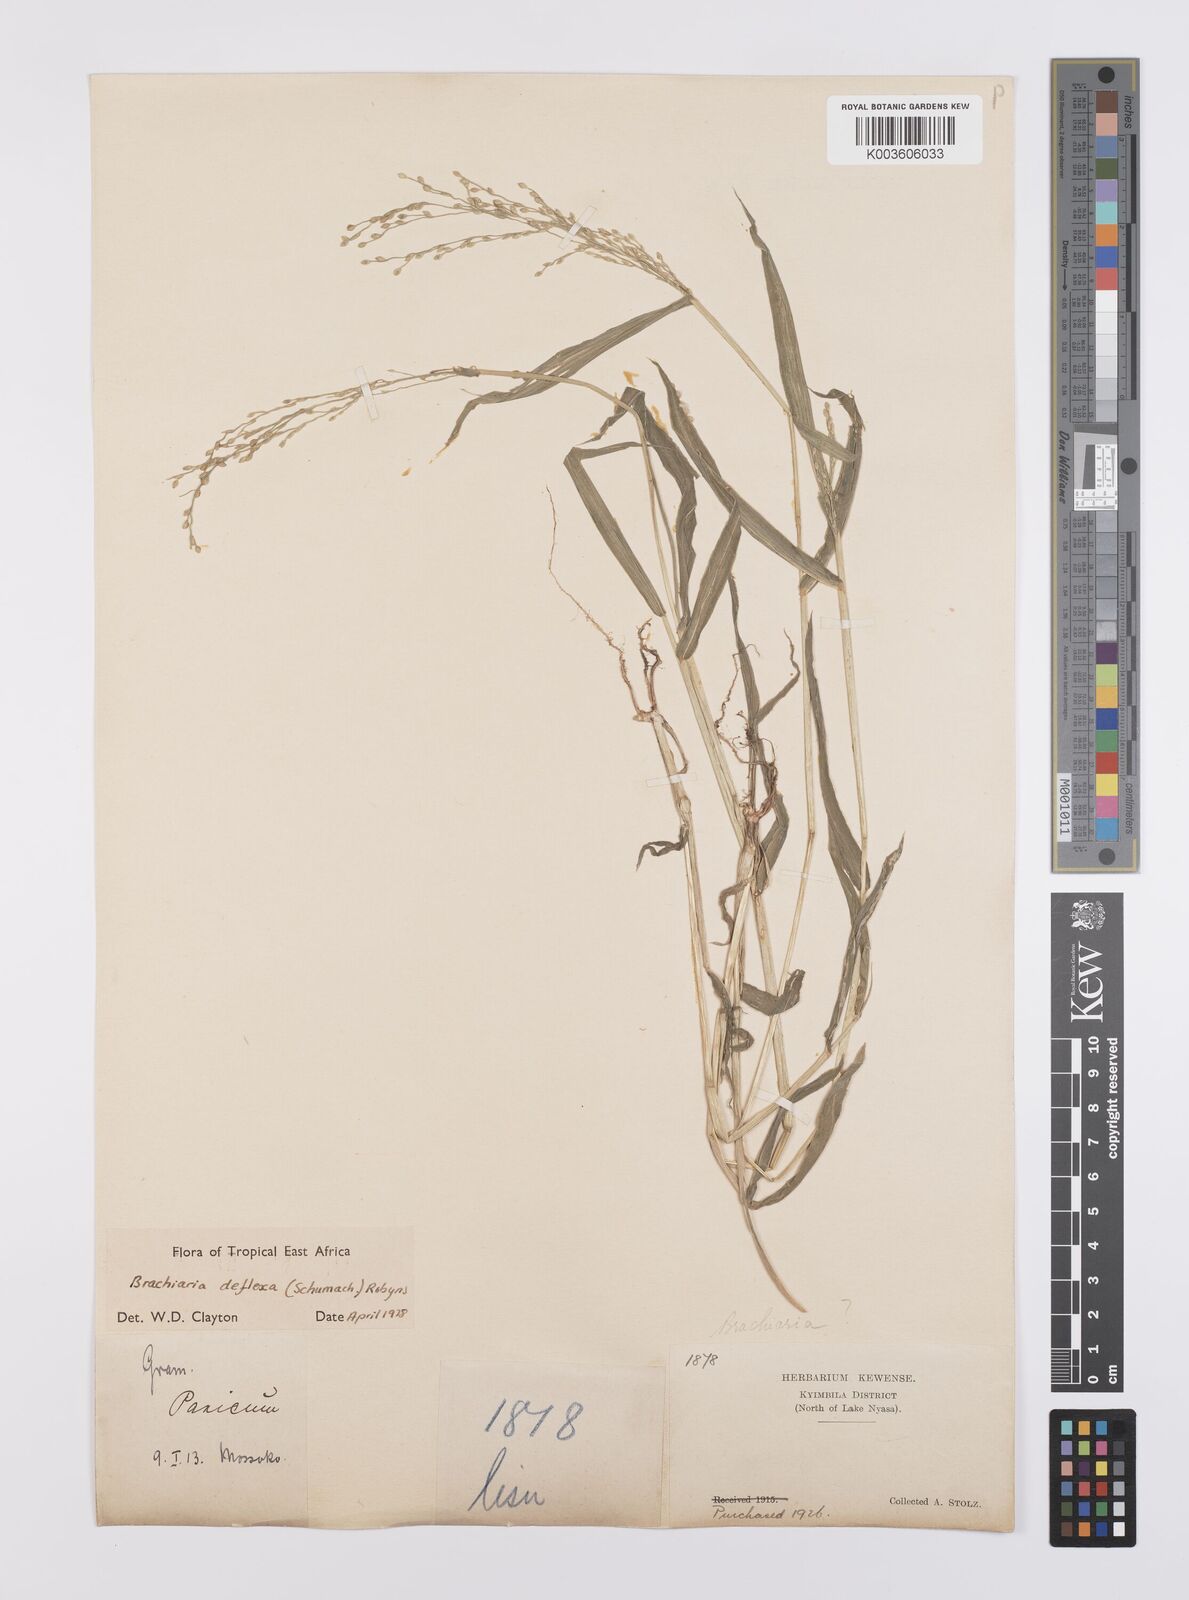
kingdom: Plantae
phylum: Tracheophyta
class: Liliopsida
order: Poales
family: Poaceae
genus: Urochloa
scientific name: Urochloa deflexa
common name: Guinea millet
